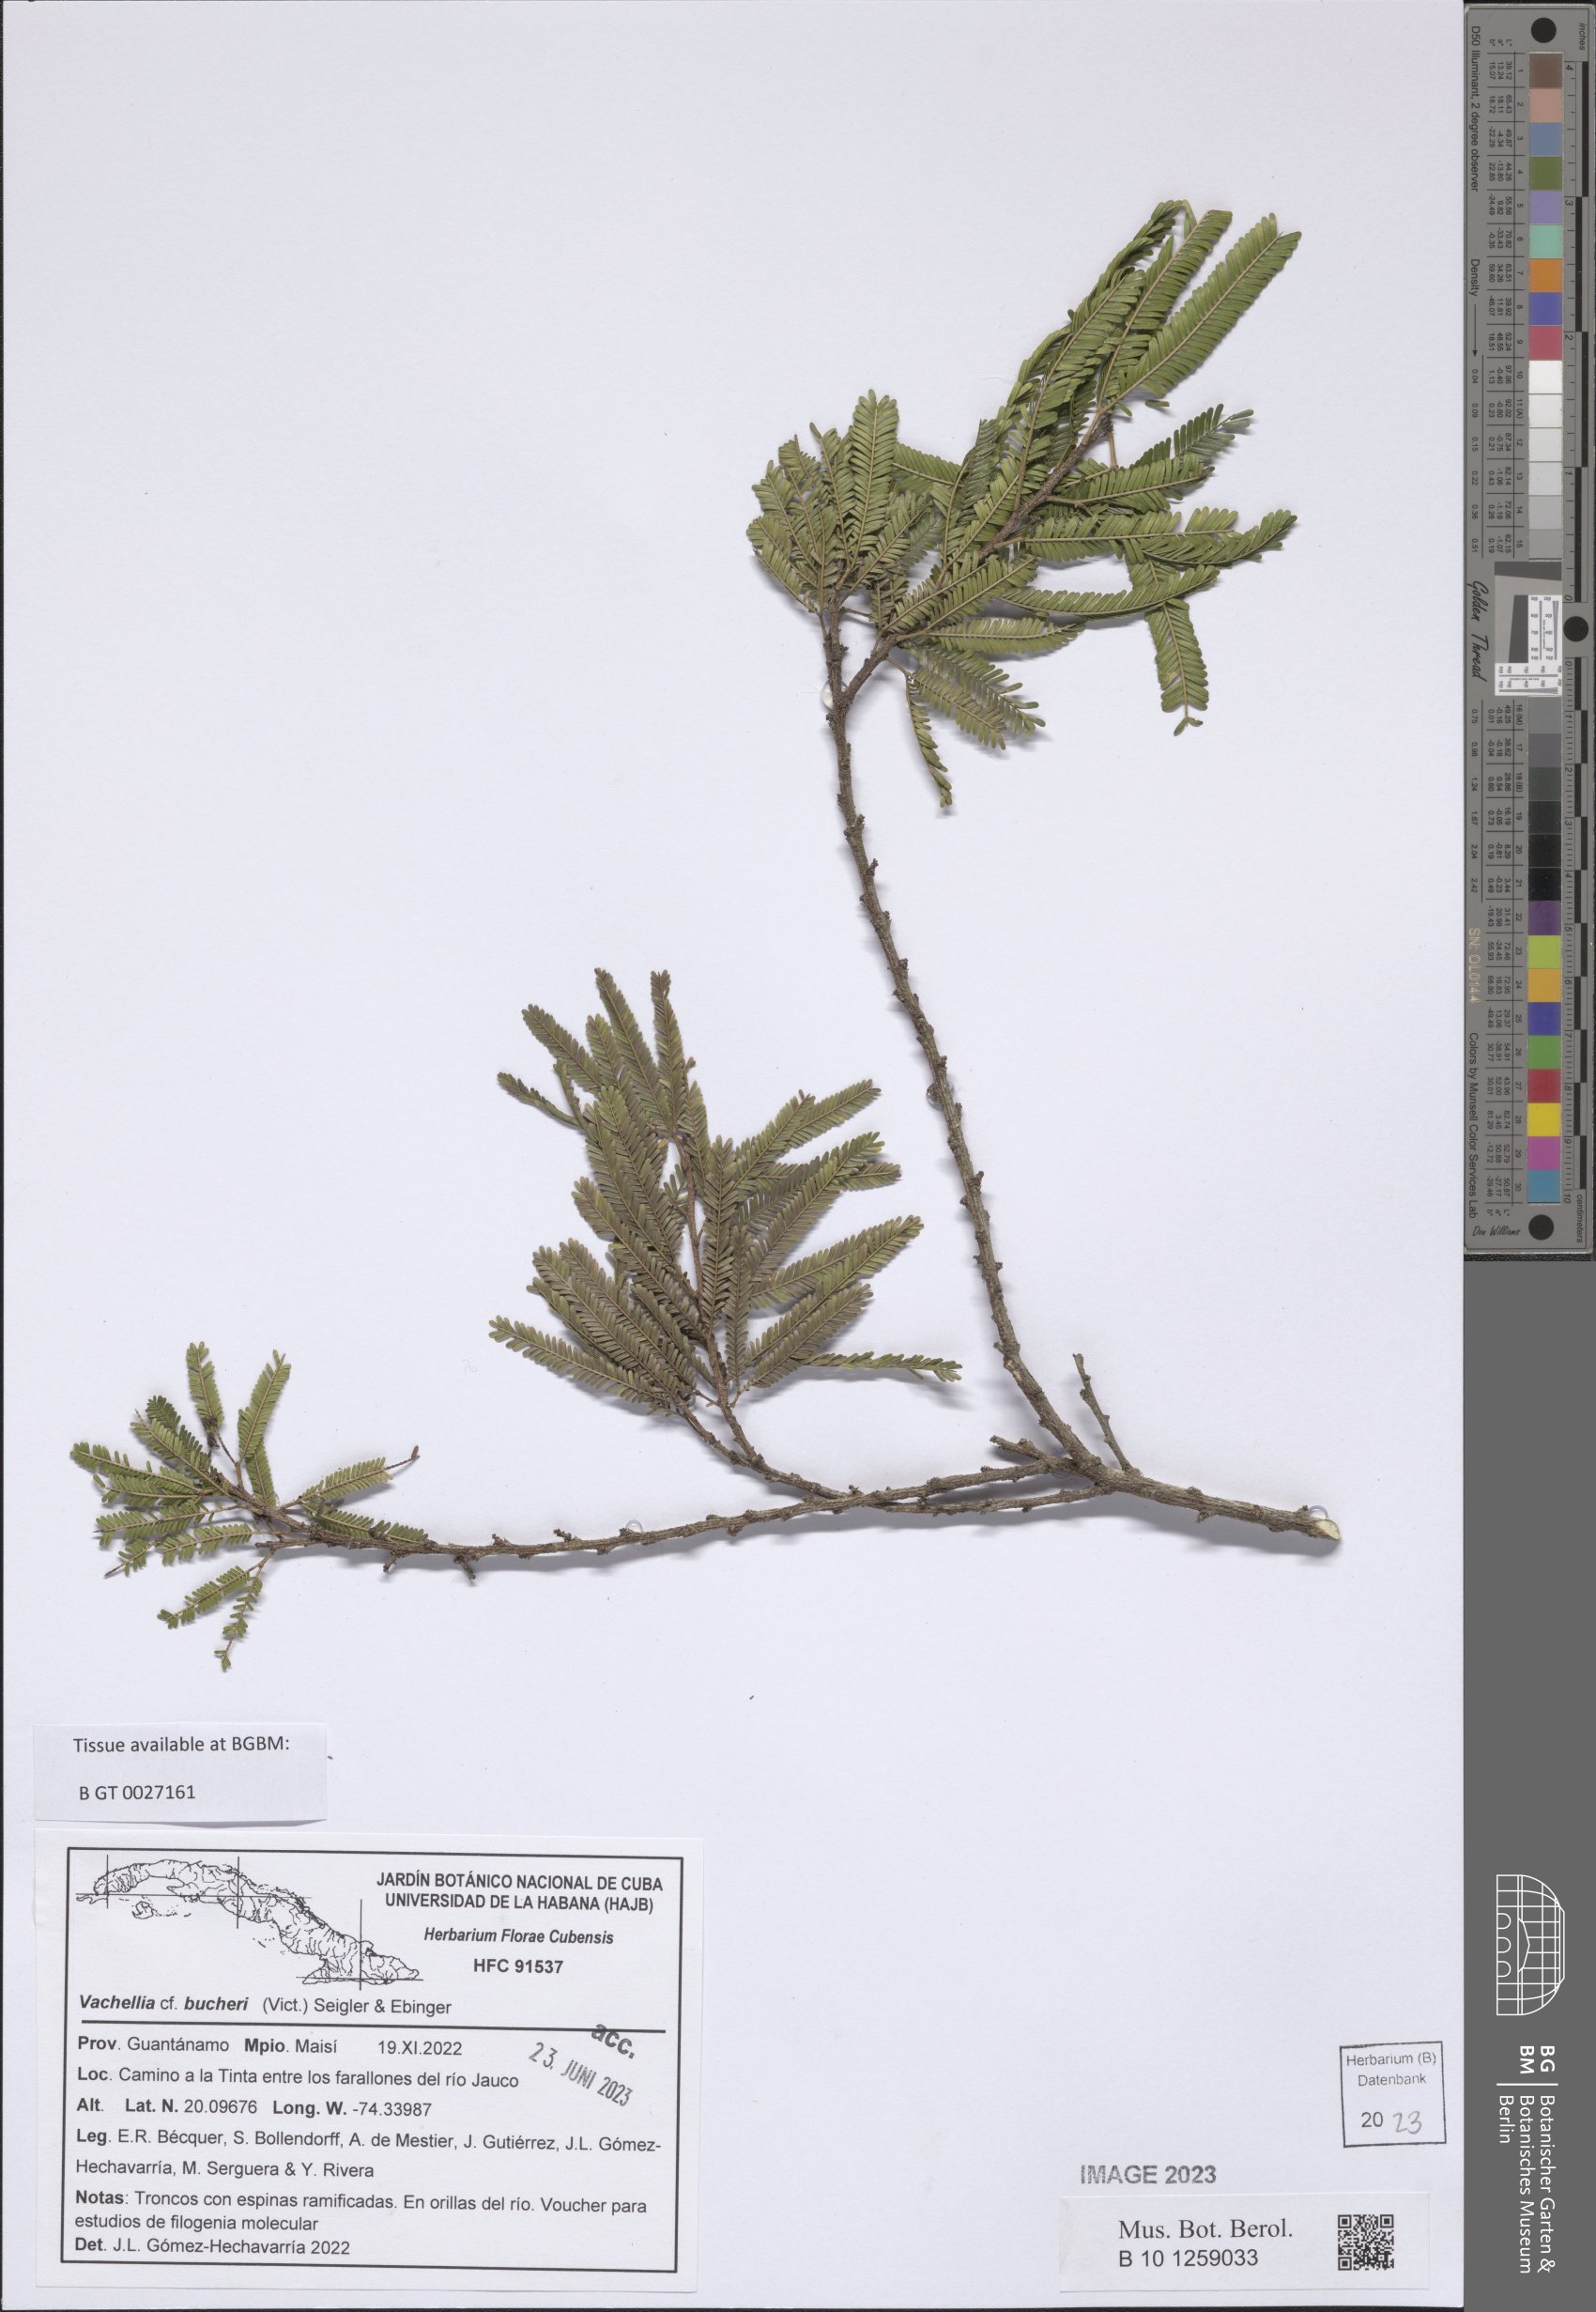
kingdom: Plantae
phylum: Tracheophyta
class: Magnoliopsida
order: Fabales
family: Fabaceae
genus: Vachellia
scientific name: Vachellia bucheri
